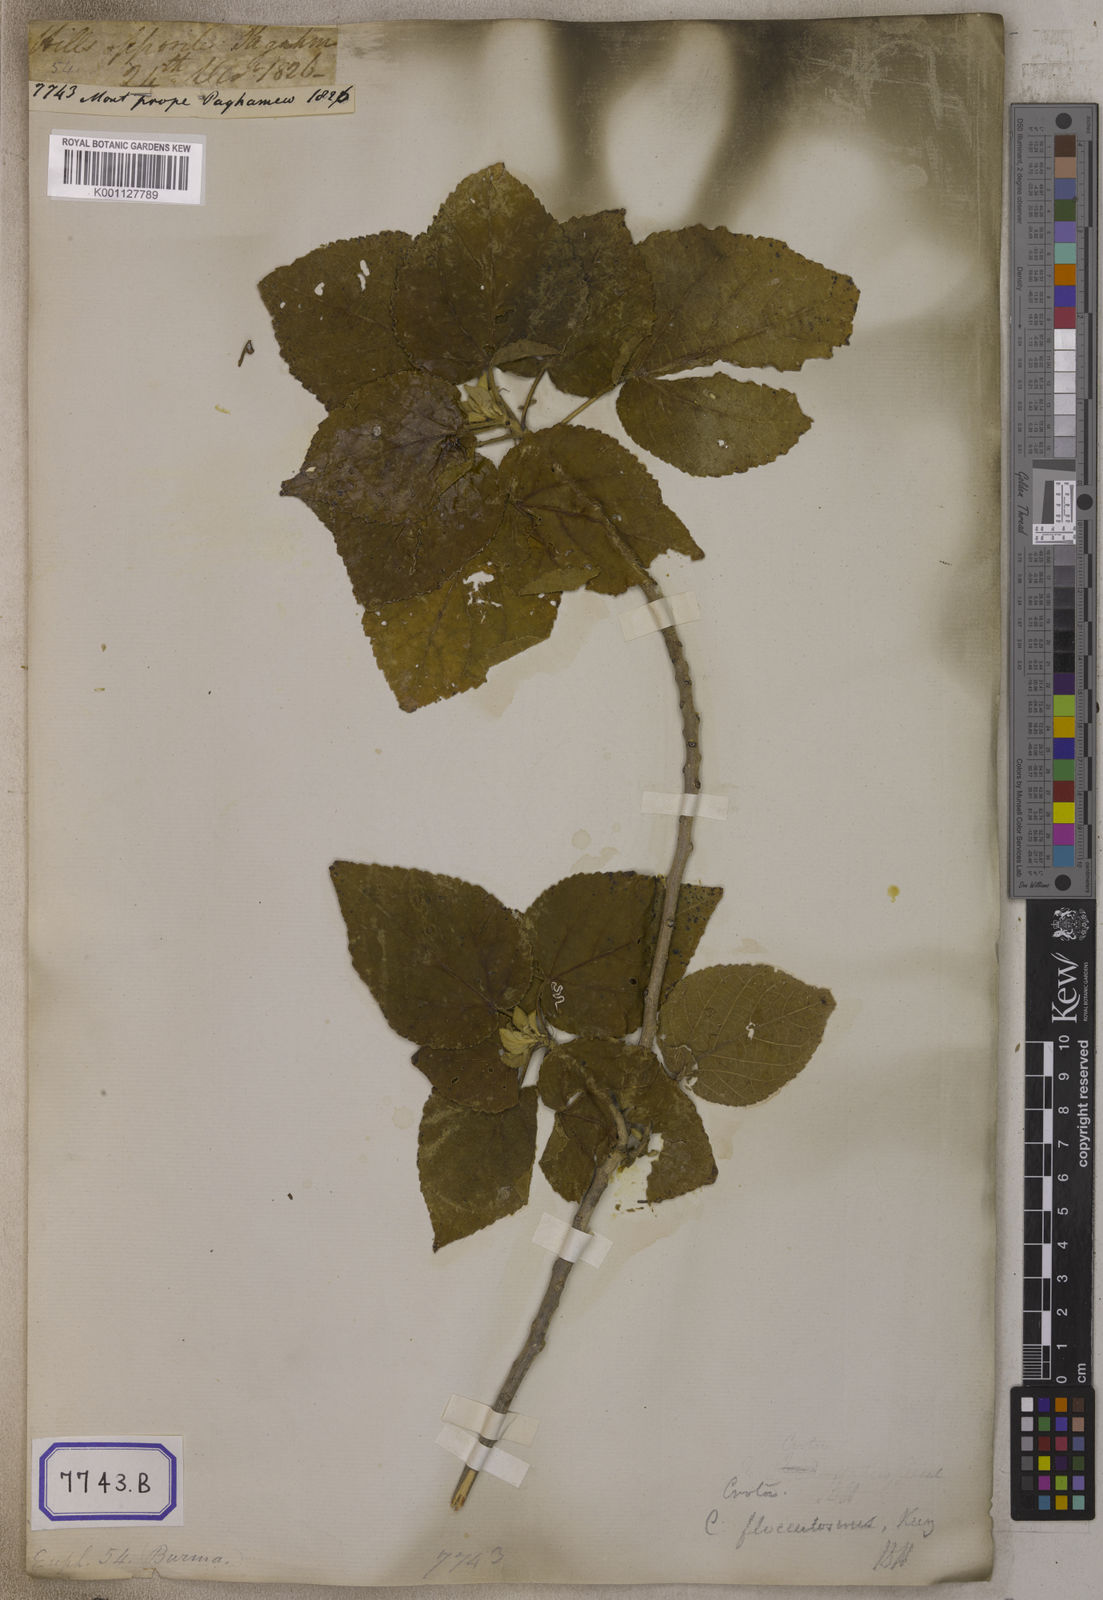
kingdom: Plantae
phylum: Tracheophyta
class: Magnoliopsida
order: Malpighiales
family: Euphorbiaceae
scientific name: Euphorbiaceae
